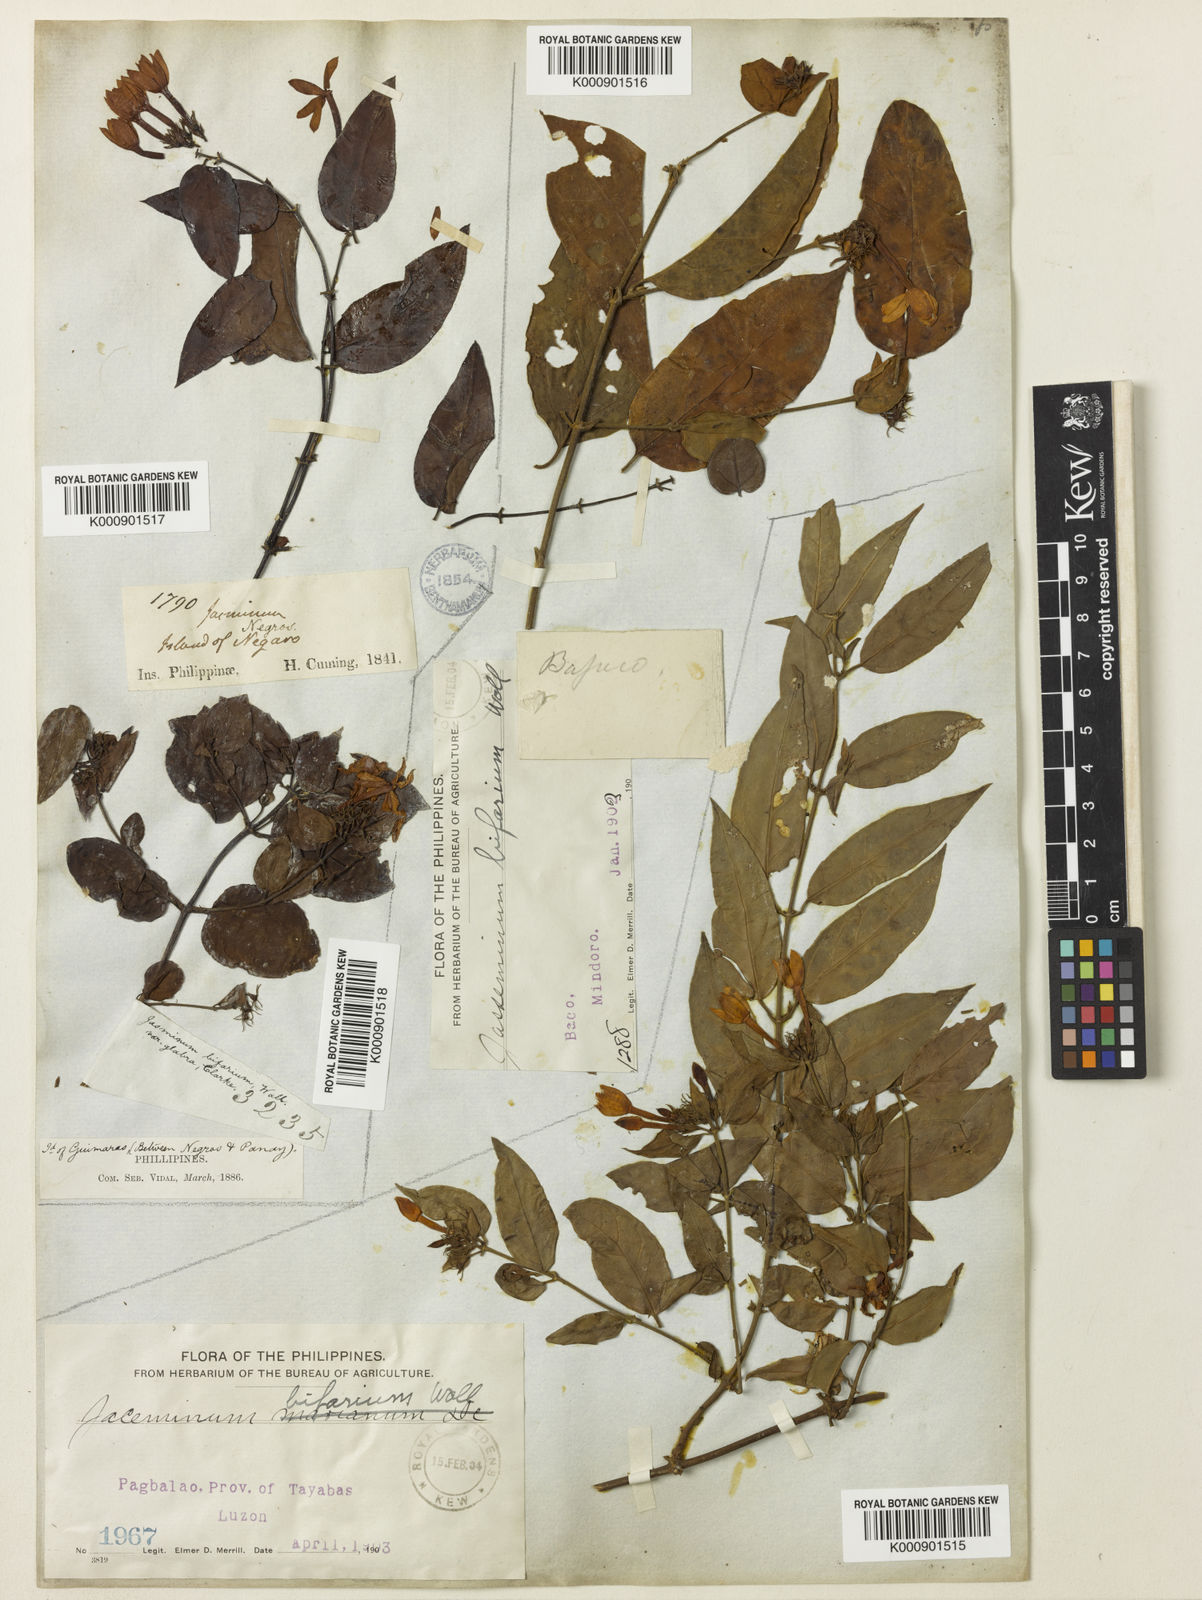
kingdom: Plantae
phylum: Tracheophyta
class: Magnoliopsida
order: Lamiales
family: Oleaceae
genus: Jasminum
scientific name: Jasminum
